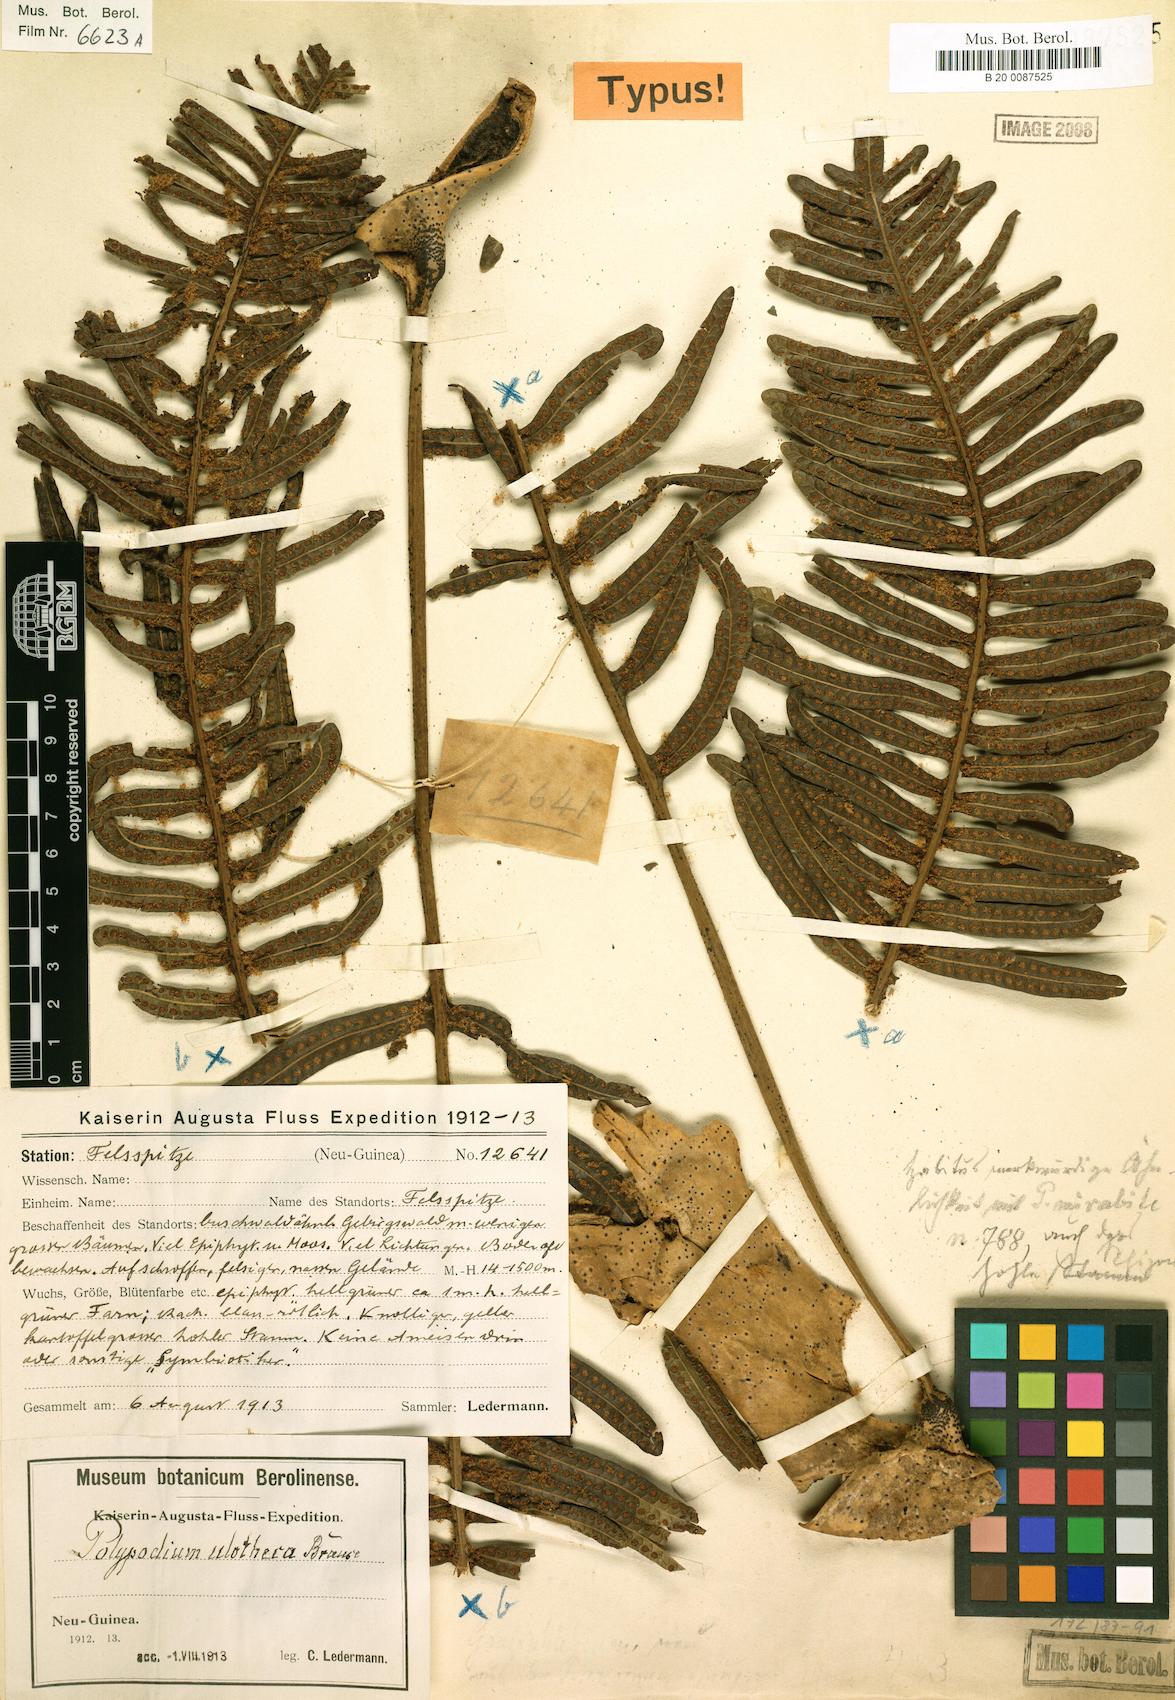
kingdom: Plantae
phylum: Tracheophyta
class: Polypodiopsida
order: Polypodiales
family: Polypodiaceae
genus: Lecanopteris
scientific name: Lecanopteris mirabilis
